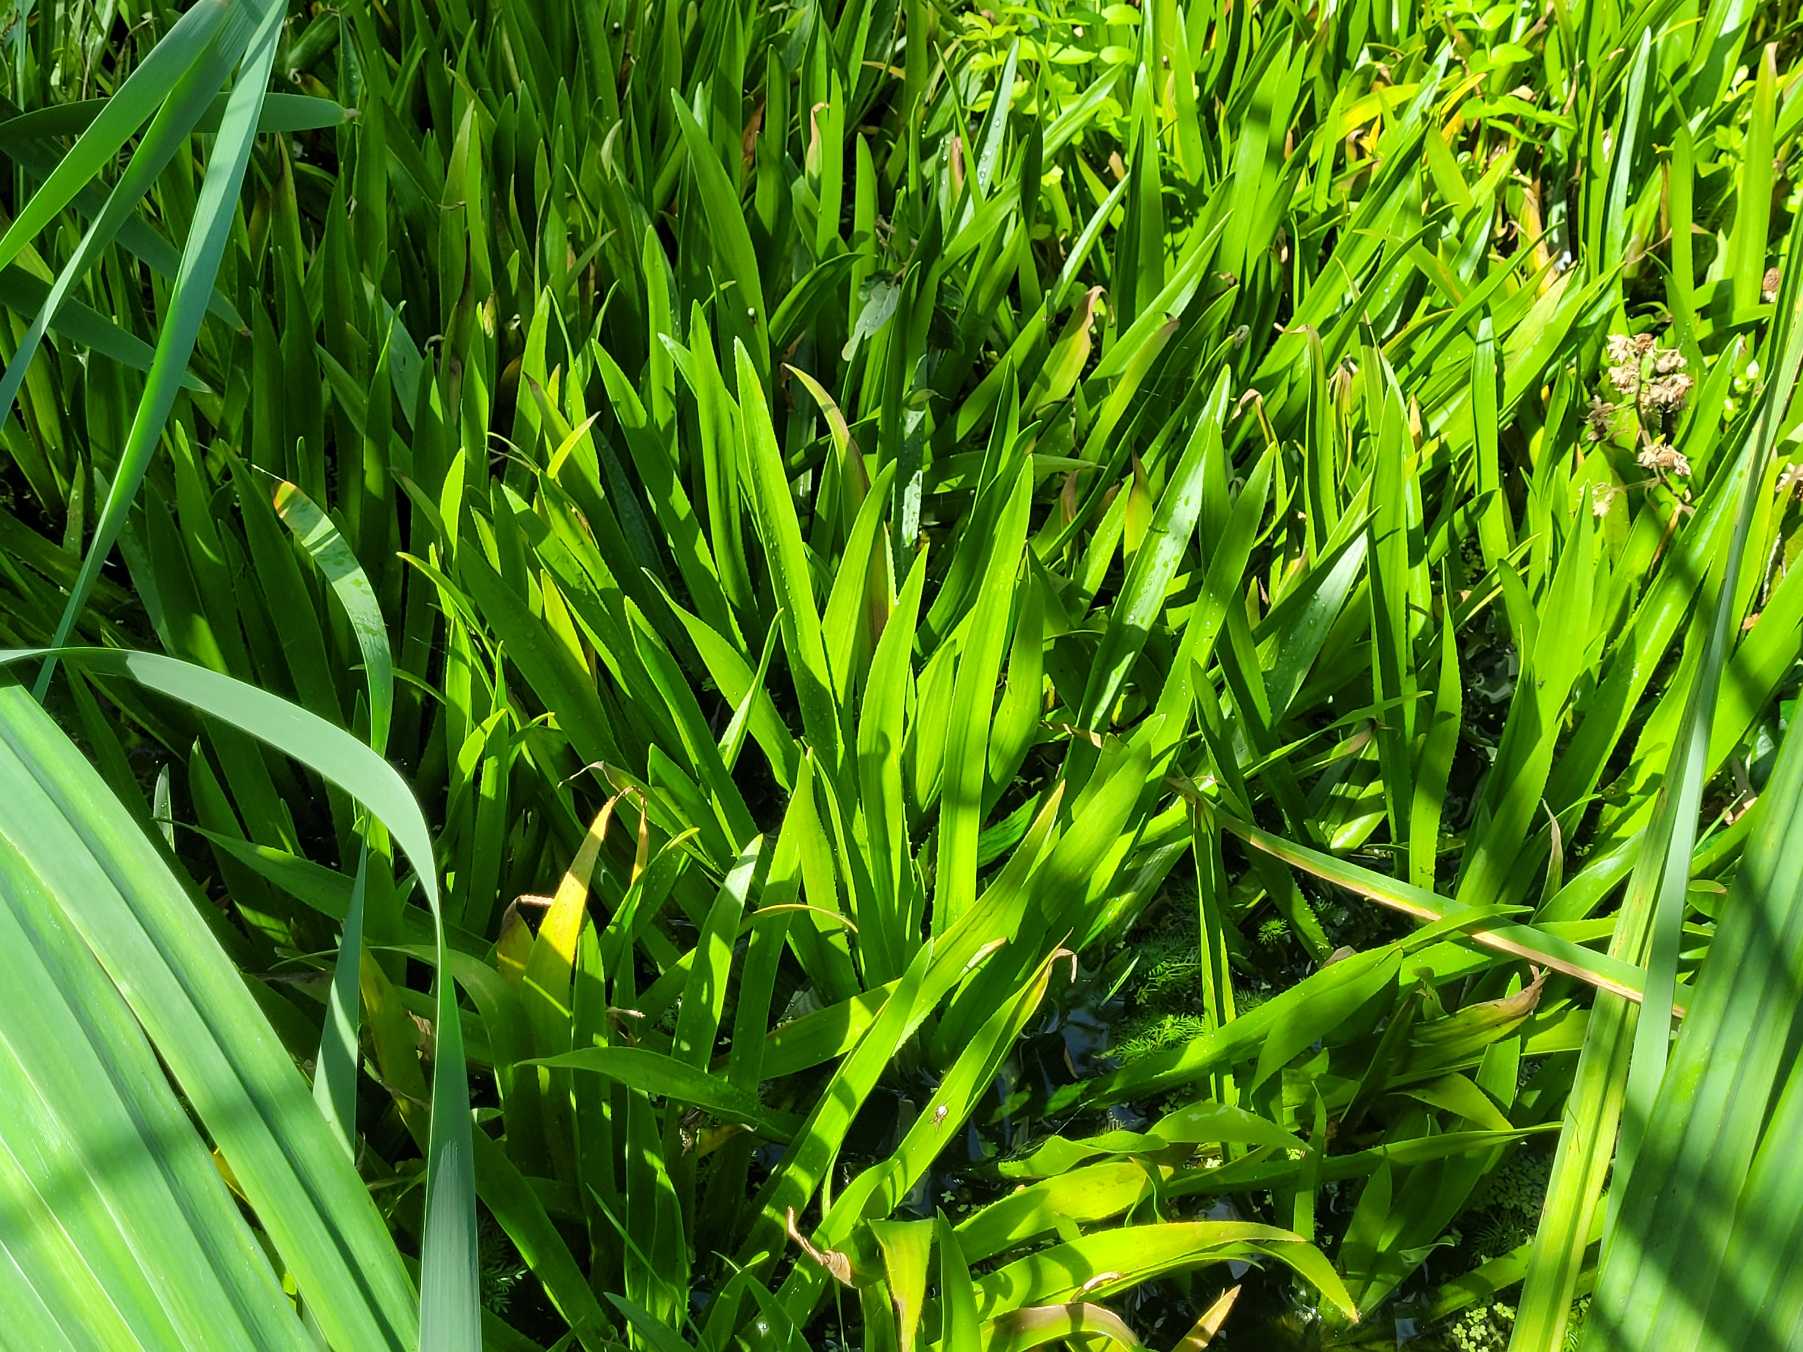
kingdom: Plantae
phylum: Tracheophyta
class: Liliopsida
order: Alismatales
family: Hydrocharitaceae
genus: Stratiotes
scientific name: Stratiotes aloides
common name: Krebseklo
